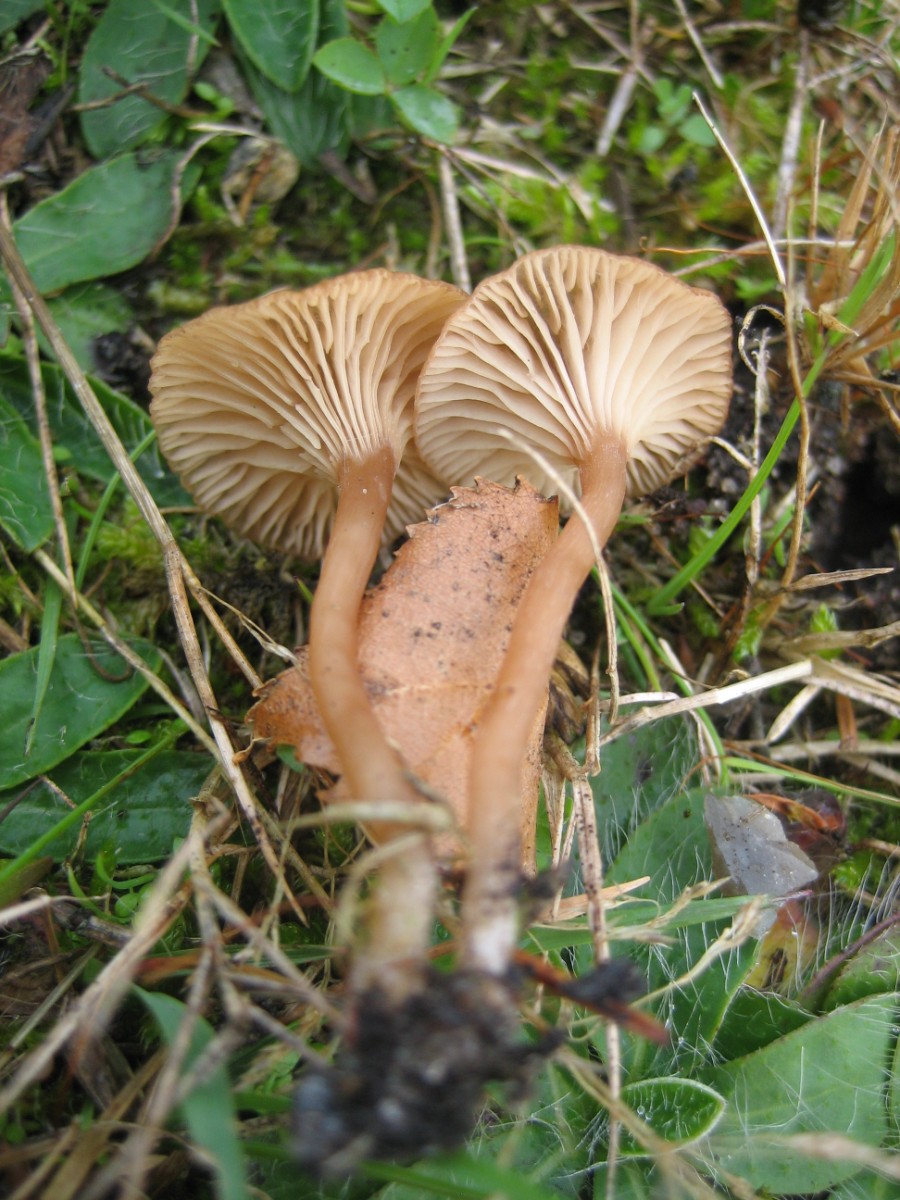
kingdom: Fungi
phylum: Basidiomycota
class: Agaricomycetes
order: Agaricales
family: Tricholomataceae
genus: Omphalina
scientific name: Omphalina pyxidata
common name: rødbrun navlehat
